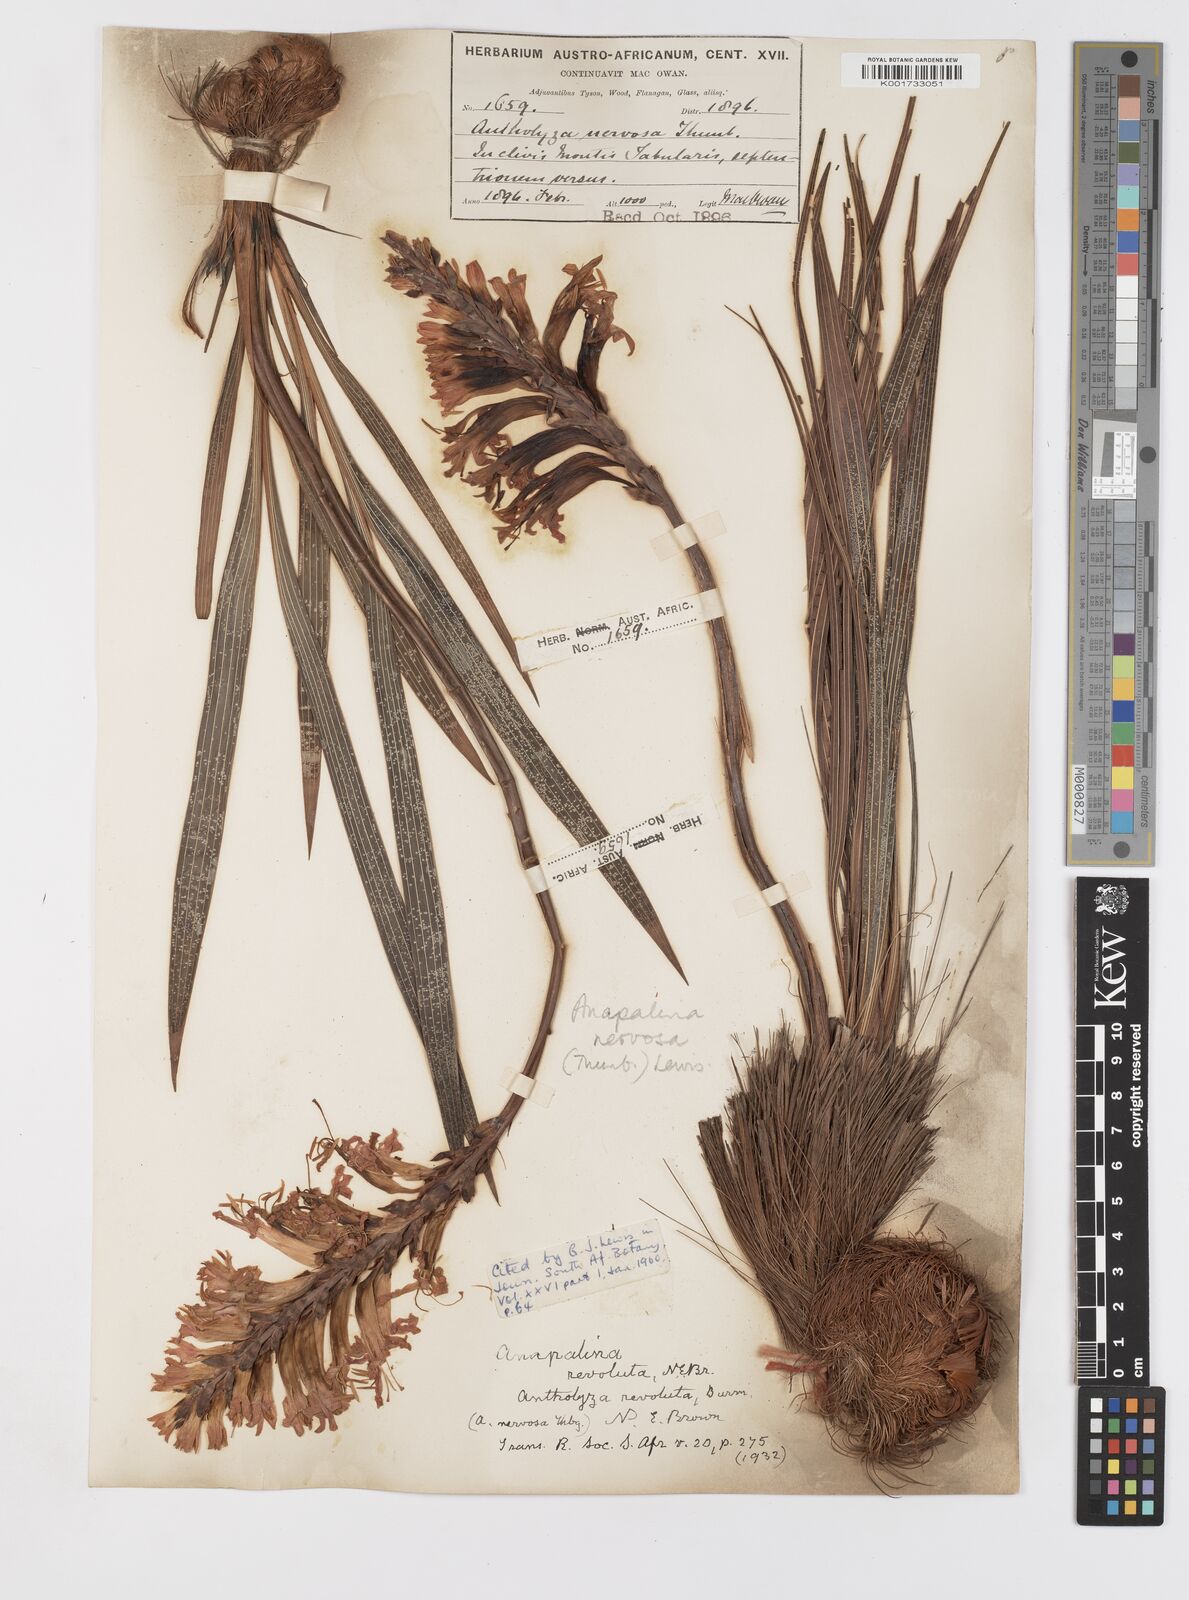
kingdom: Plantae
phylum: Tracheophyta
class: Liliopsida
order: Asparagales
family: Iridaceae
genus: Tritoniopsis
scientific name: Tritoniopsis nervosa
